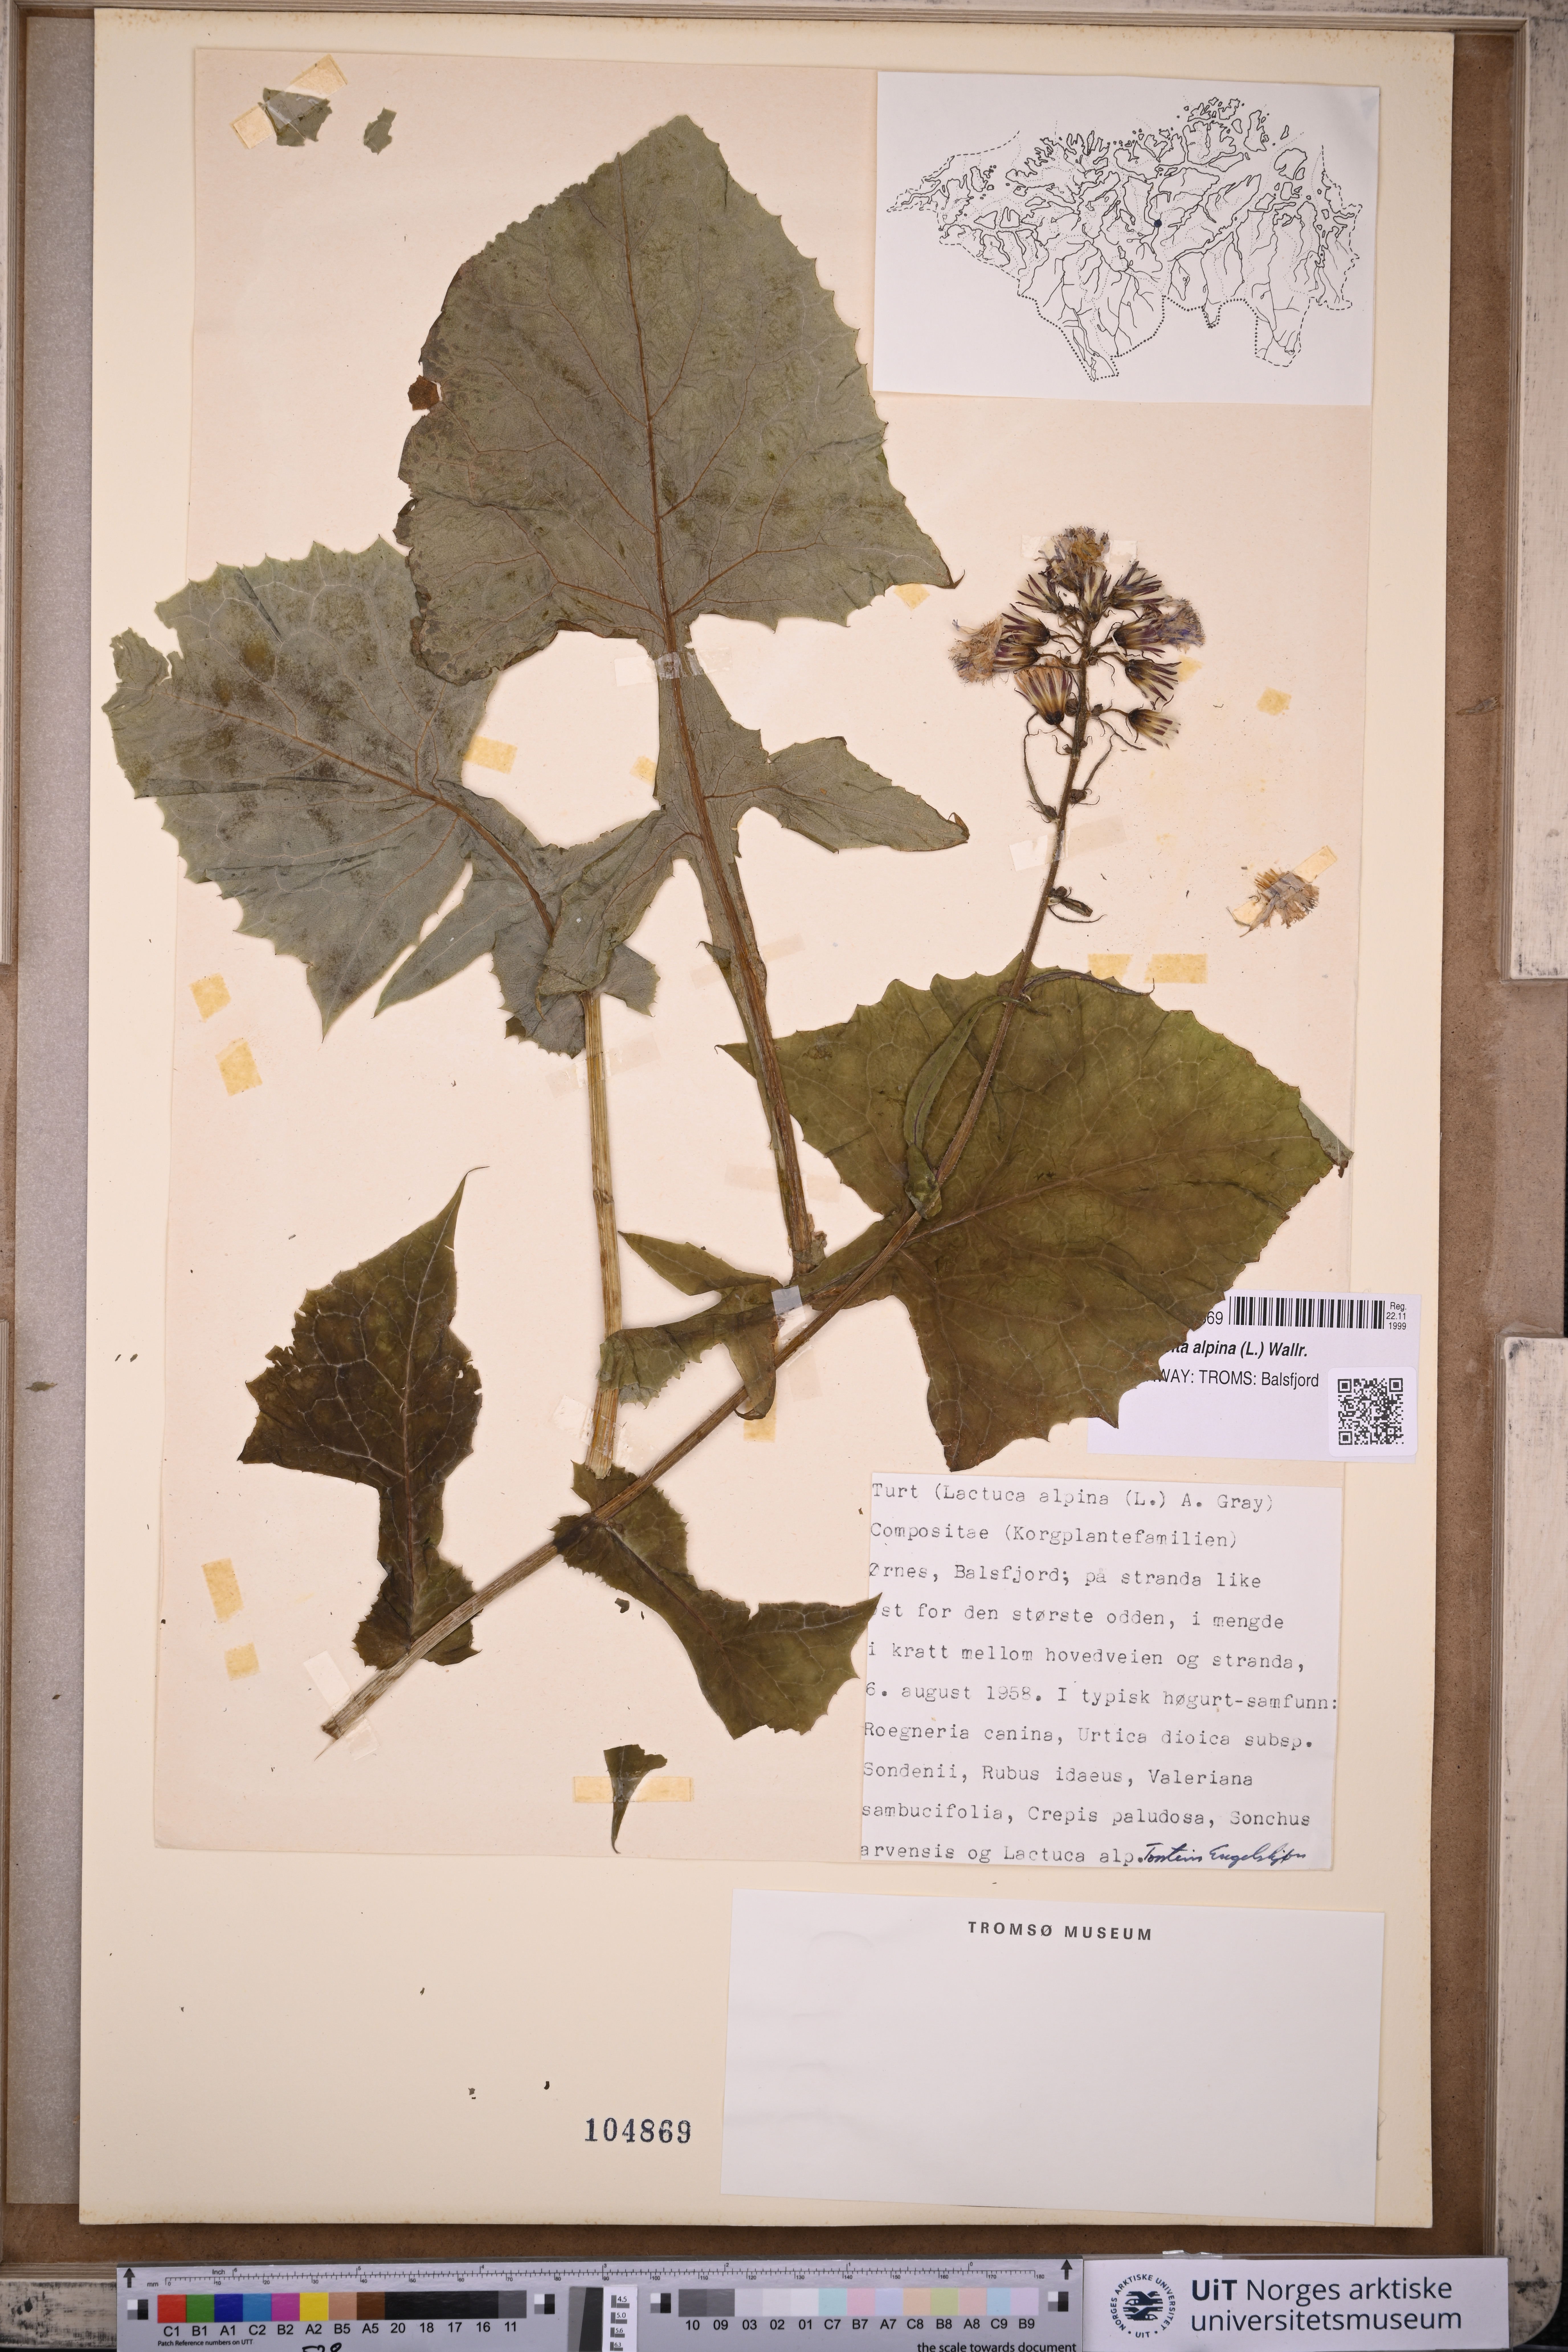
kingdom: Plantae
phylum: Tracheophyta
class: Magnoliopsida
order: Asterales
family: Asteraceae
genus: Cicerbita
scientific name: Cicerbita alpina
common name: Alpine blue-sow-thistle
